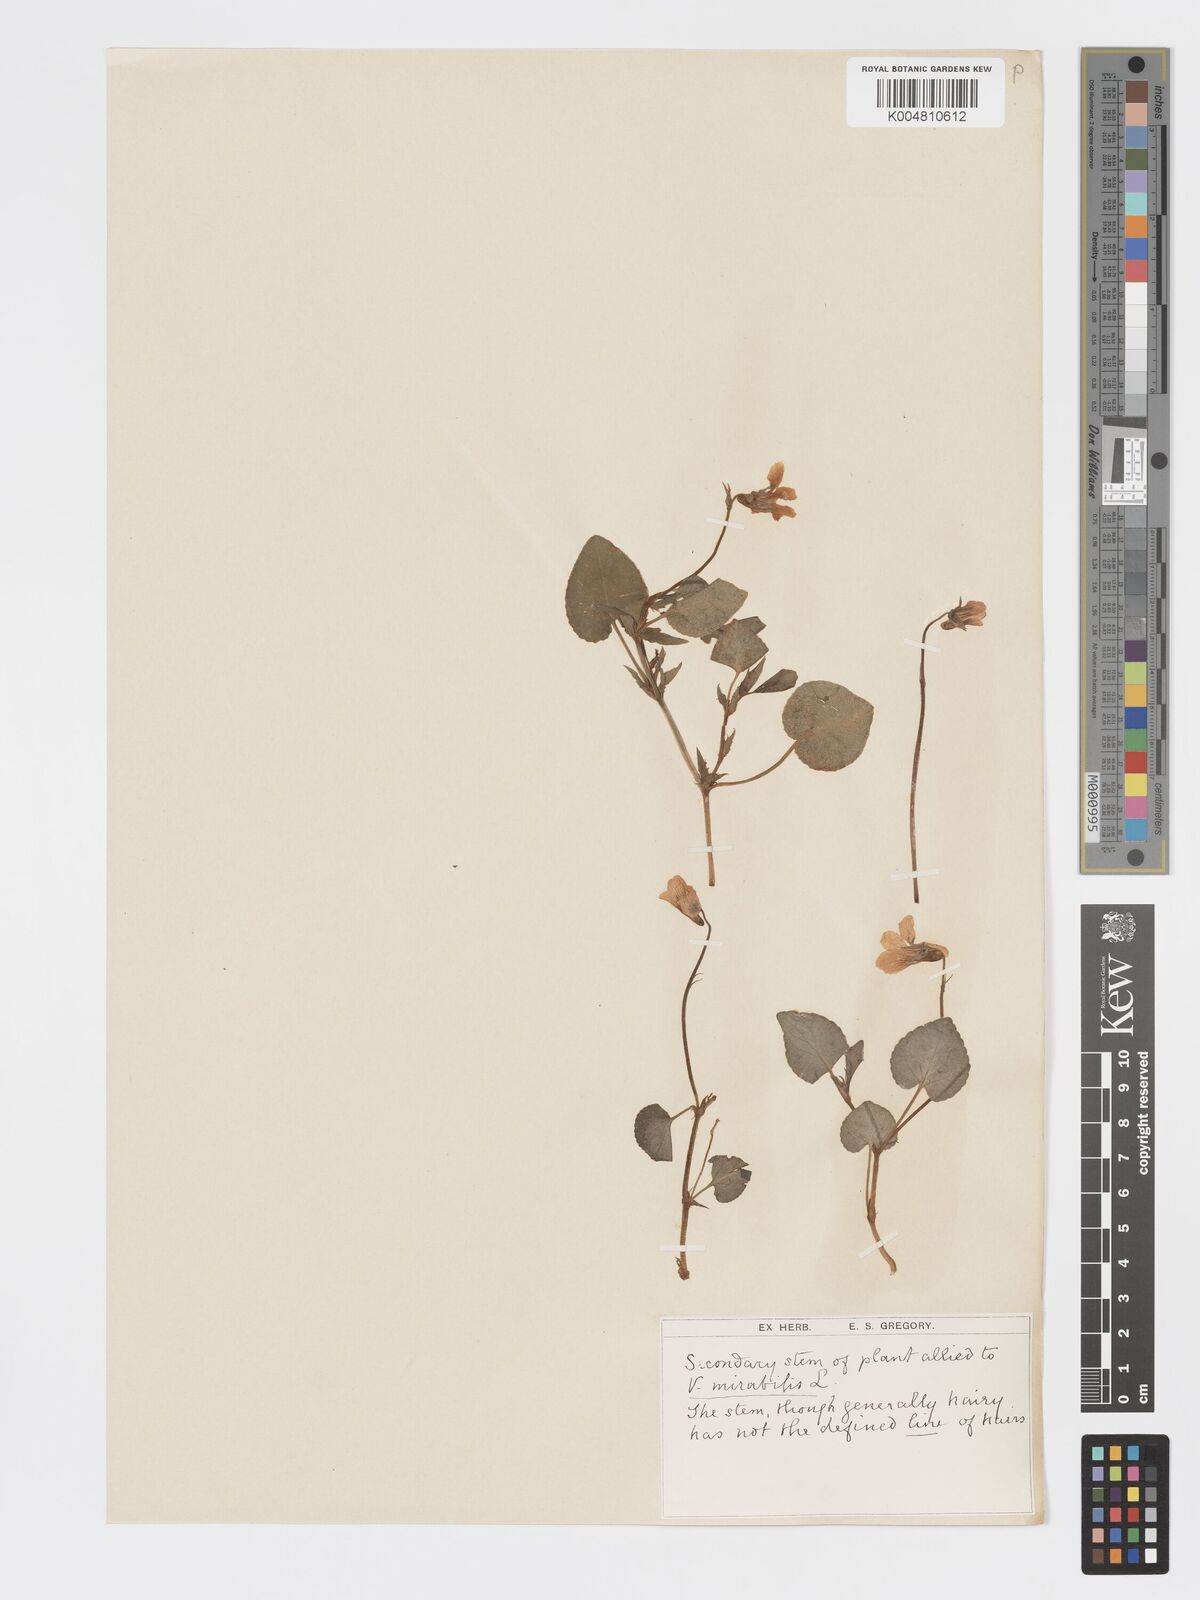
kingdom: Plantae
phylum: Tracheophyta
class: Magnoliopsida
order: Malpighiales
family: Violaceae
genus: Viola
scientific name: Viola mirabilis
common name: Wonder violet
